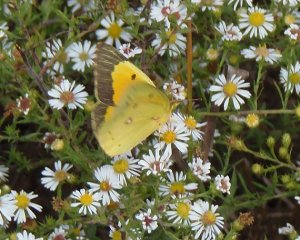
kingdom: Animalia
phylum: Arthropoda
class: Insecta
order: Lepidoptera
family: Pieridae
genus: Colias
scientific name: Colias eurytheme
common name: Orange Sulphur
